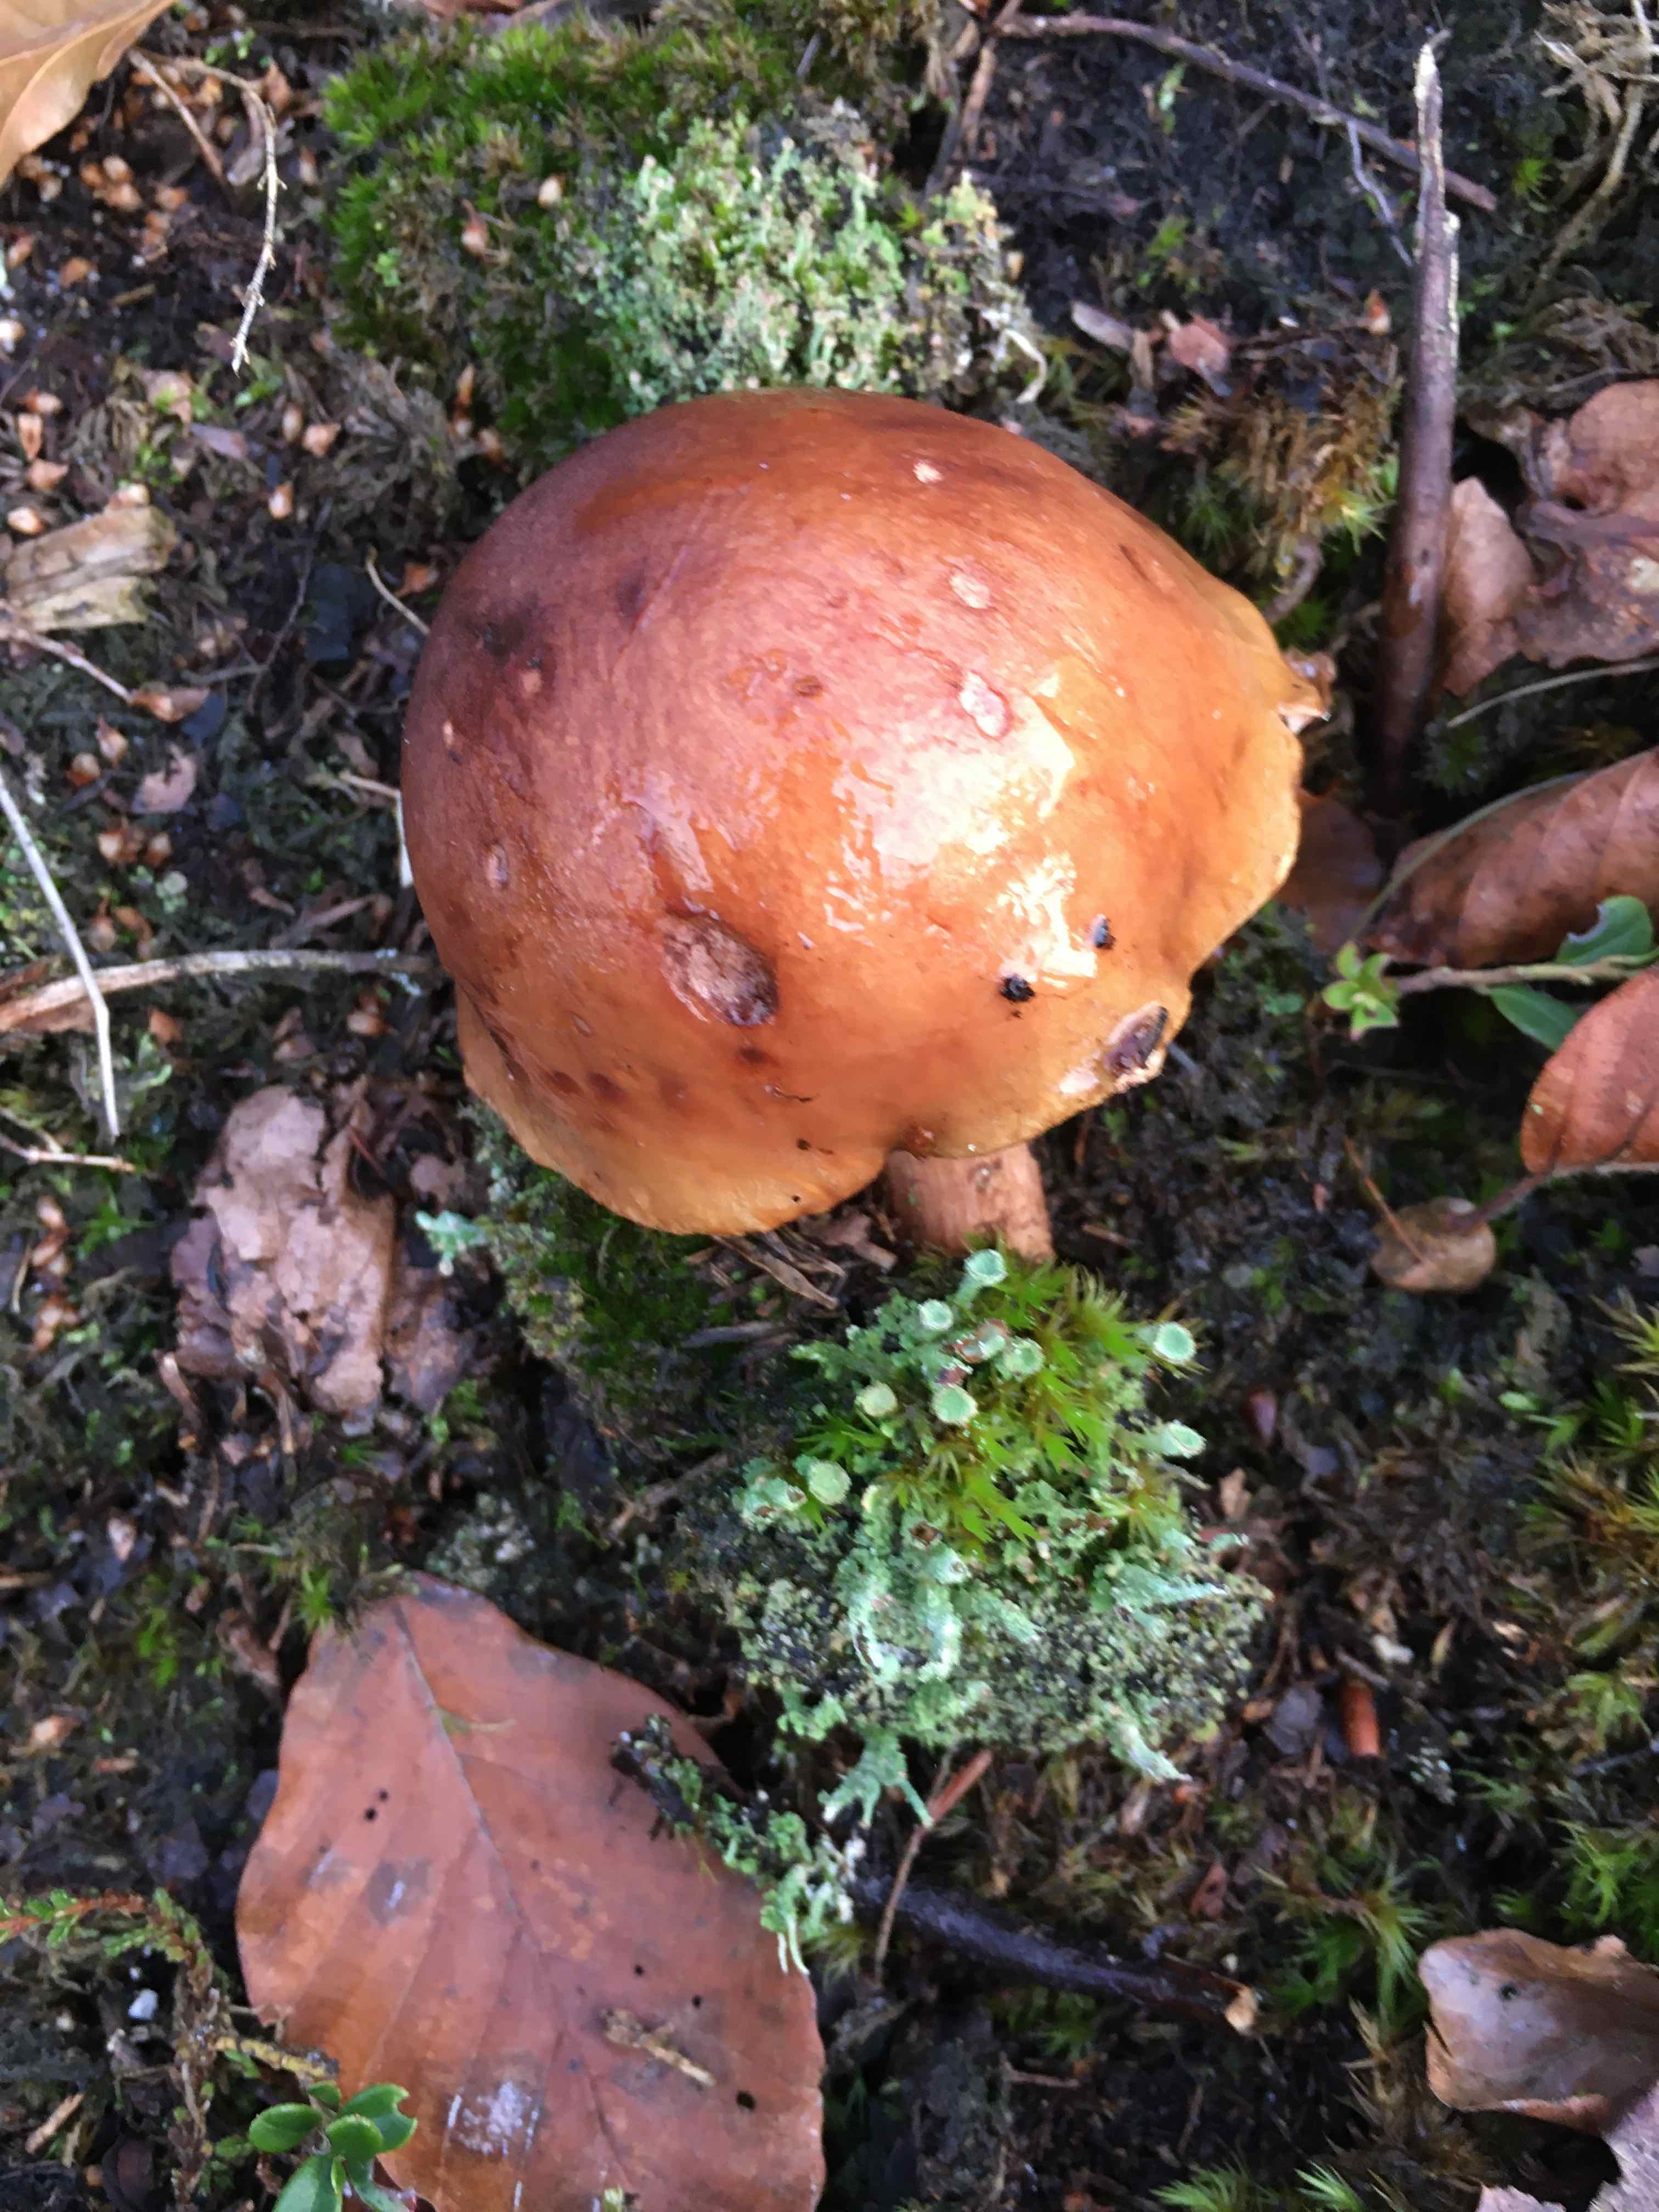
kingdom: Fungi
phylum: Basidiomycota
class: Agaricomycetes
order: Agaricales
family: Tricholomataceae
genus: Tricholoma
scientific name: Tricholoma
